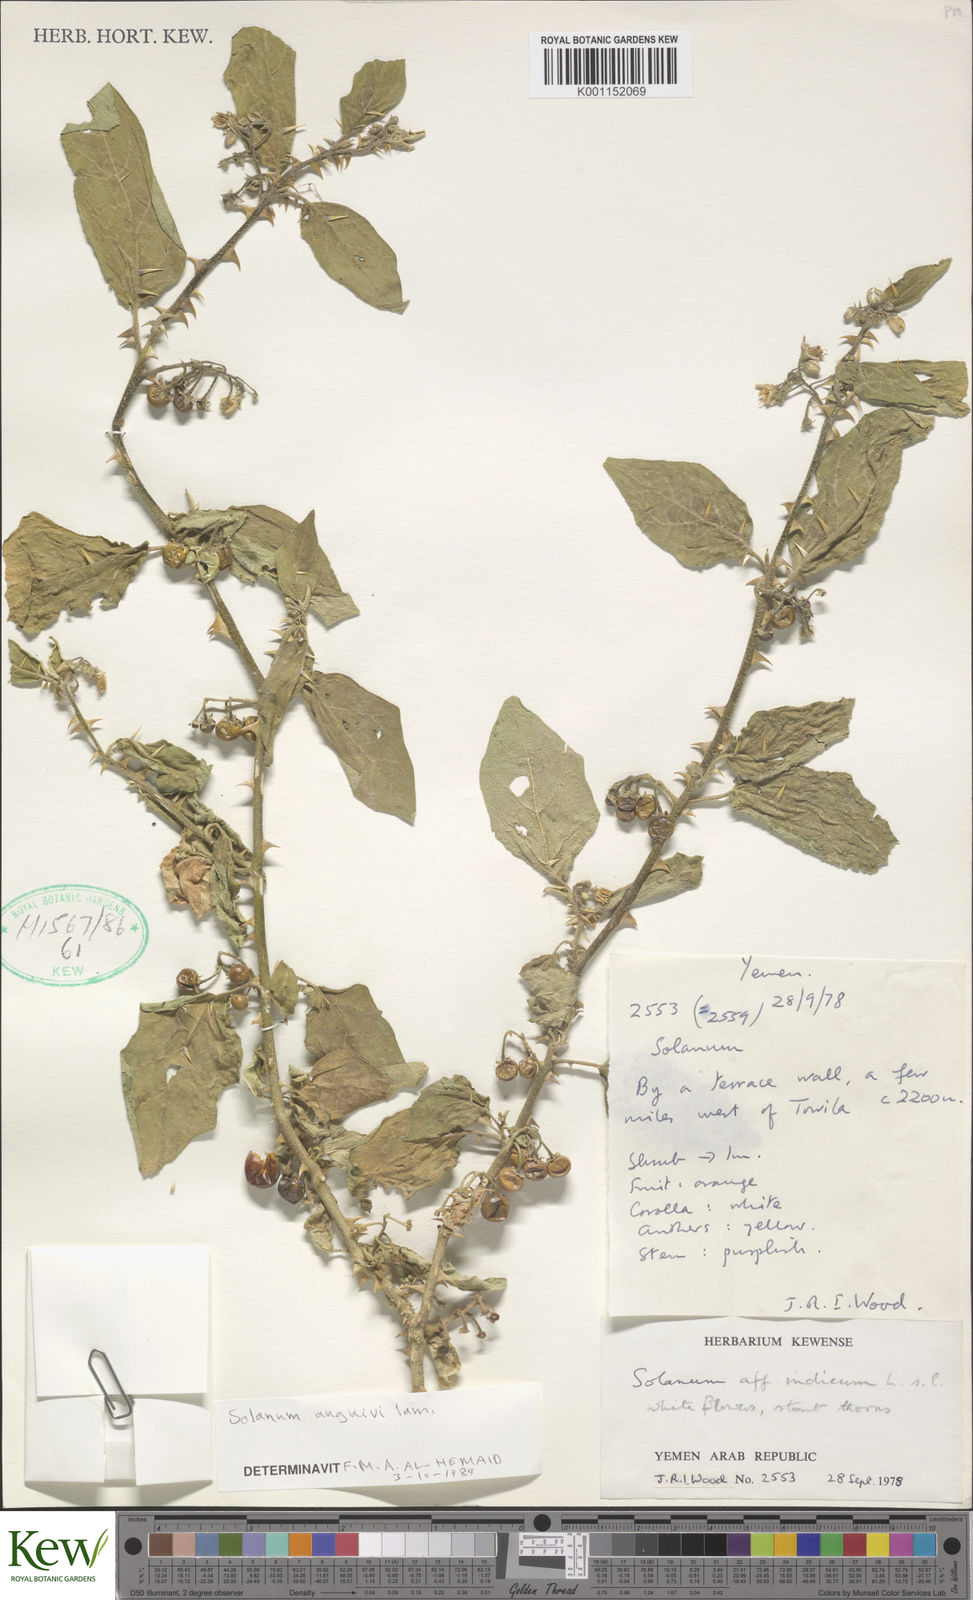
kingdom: Plantae
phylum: Tracheophyta
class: Magnoliopsida
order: Solanales
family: Solanaceae
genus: Solanum
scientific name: Solanum anguivi
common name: Forest bitterberry
